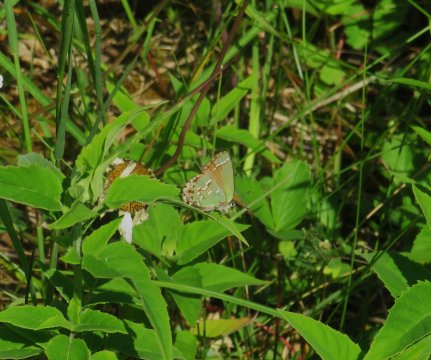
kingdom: Animalia
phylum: Arthropoda
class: Insecta
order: Lepidoptera
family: Lycaenidae
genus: Mitoura
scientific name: Mitoura gryneus
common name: Juniper Hairstreak
